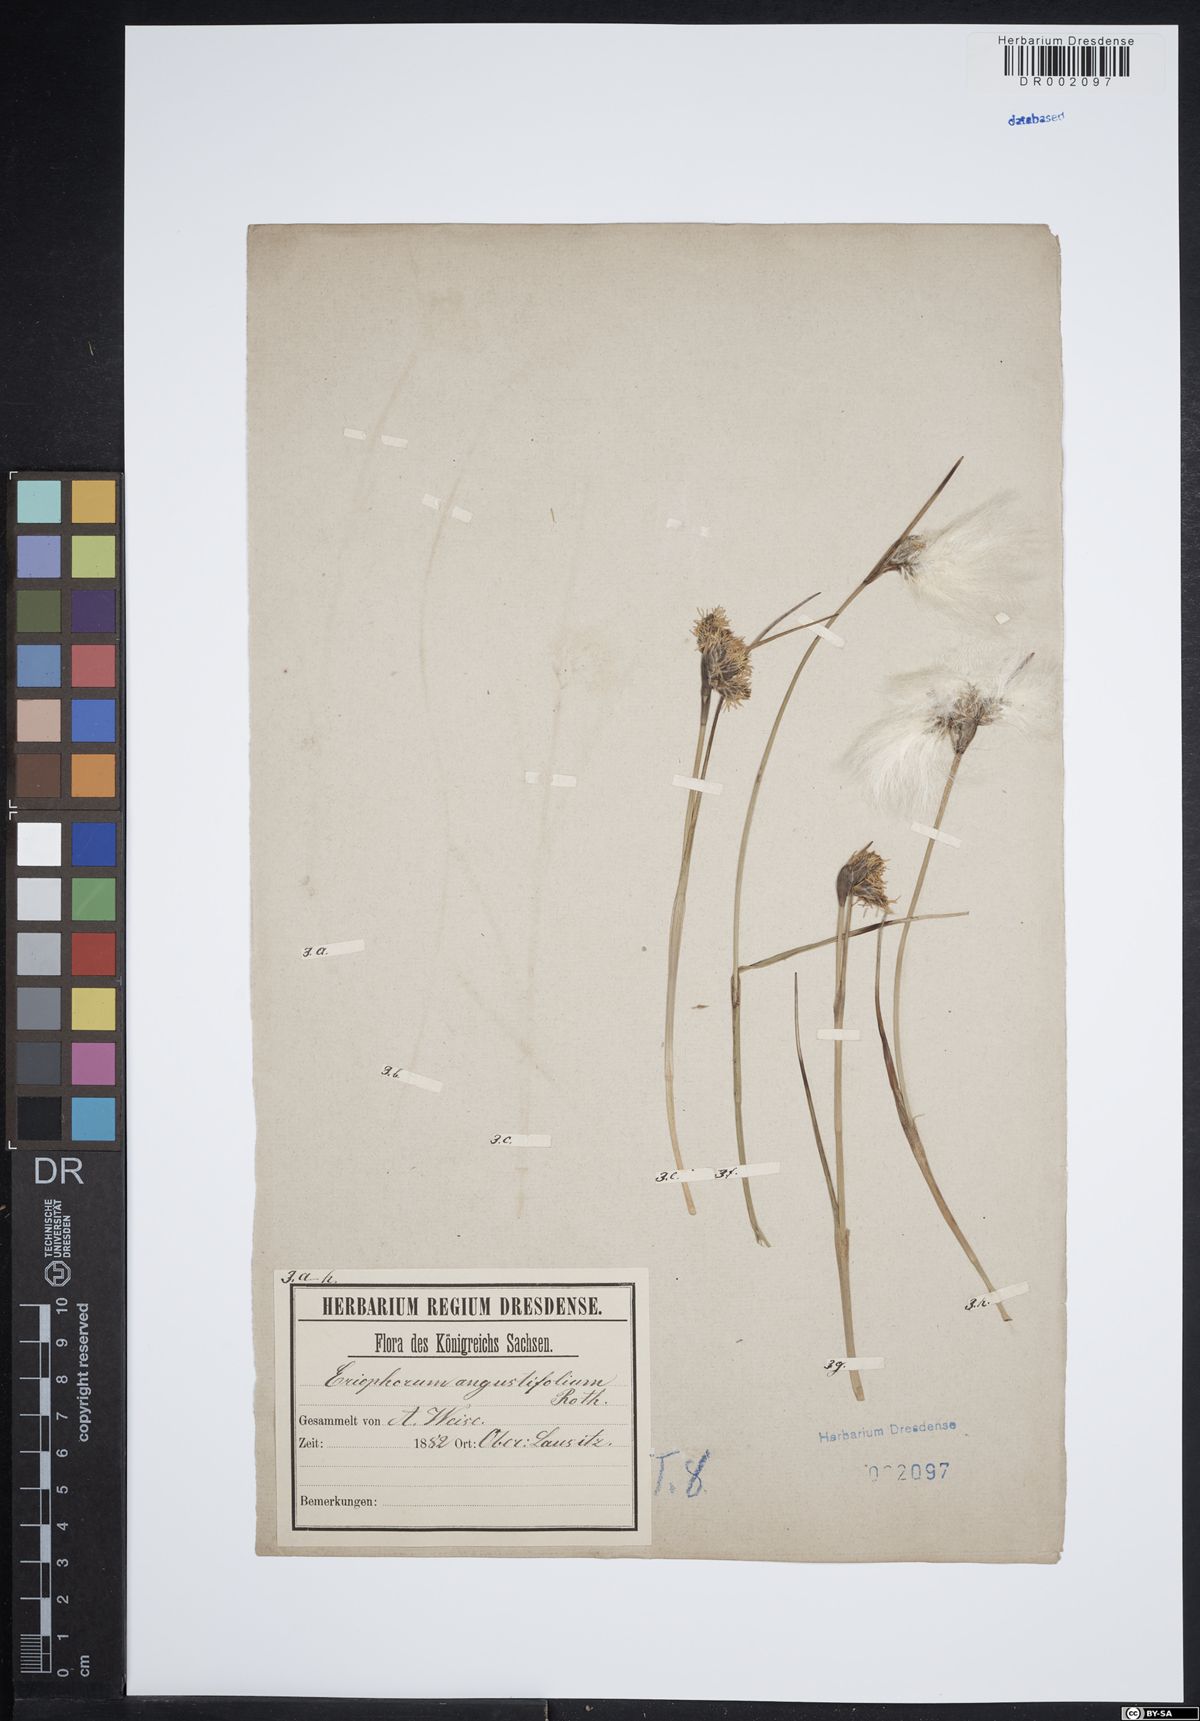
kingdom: Plantae
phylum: Tracheophyta
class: Liliopsida
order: Poales
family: Cyperaceae
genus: Eriophorum
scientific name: Eriophorum angustifolium
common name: Common cottongrass
